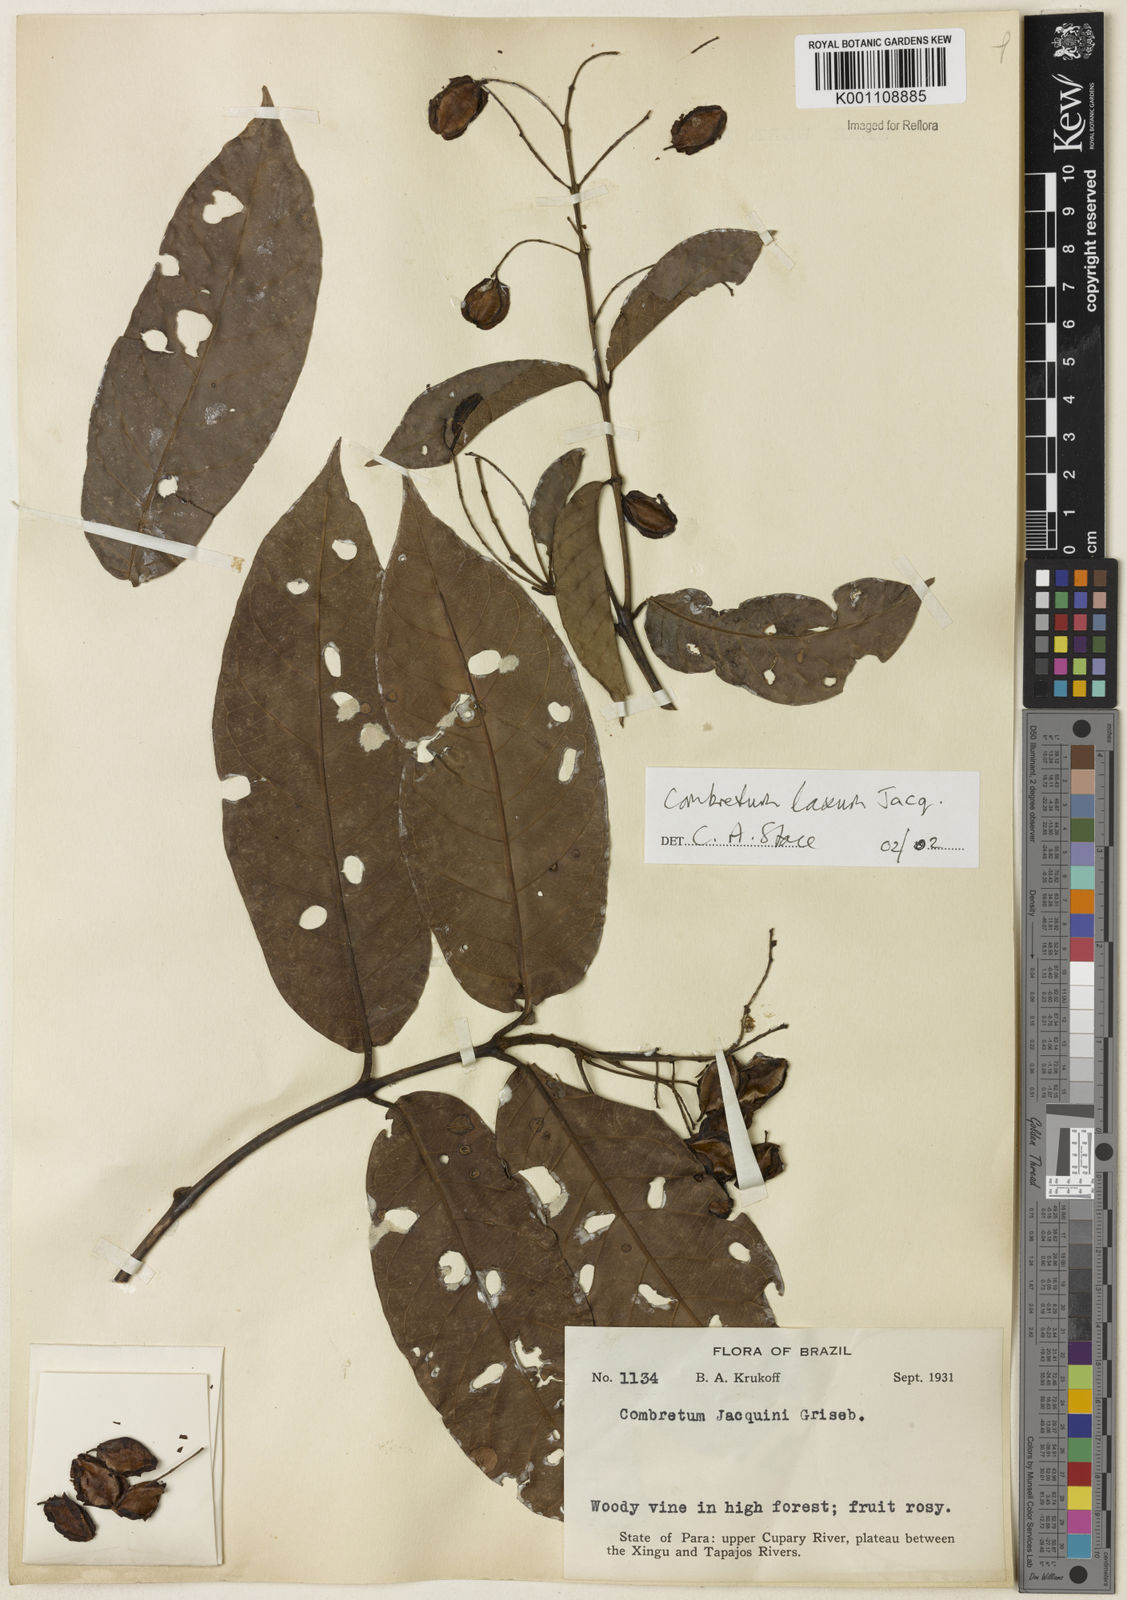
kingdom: Plantae
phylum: Tracheophyta
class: Magnoliopsida
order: Myrtales
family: Combretaceae
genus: Combretum
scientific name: Combretum laxum
